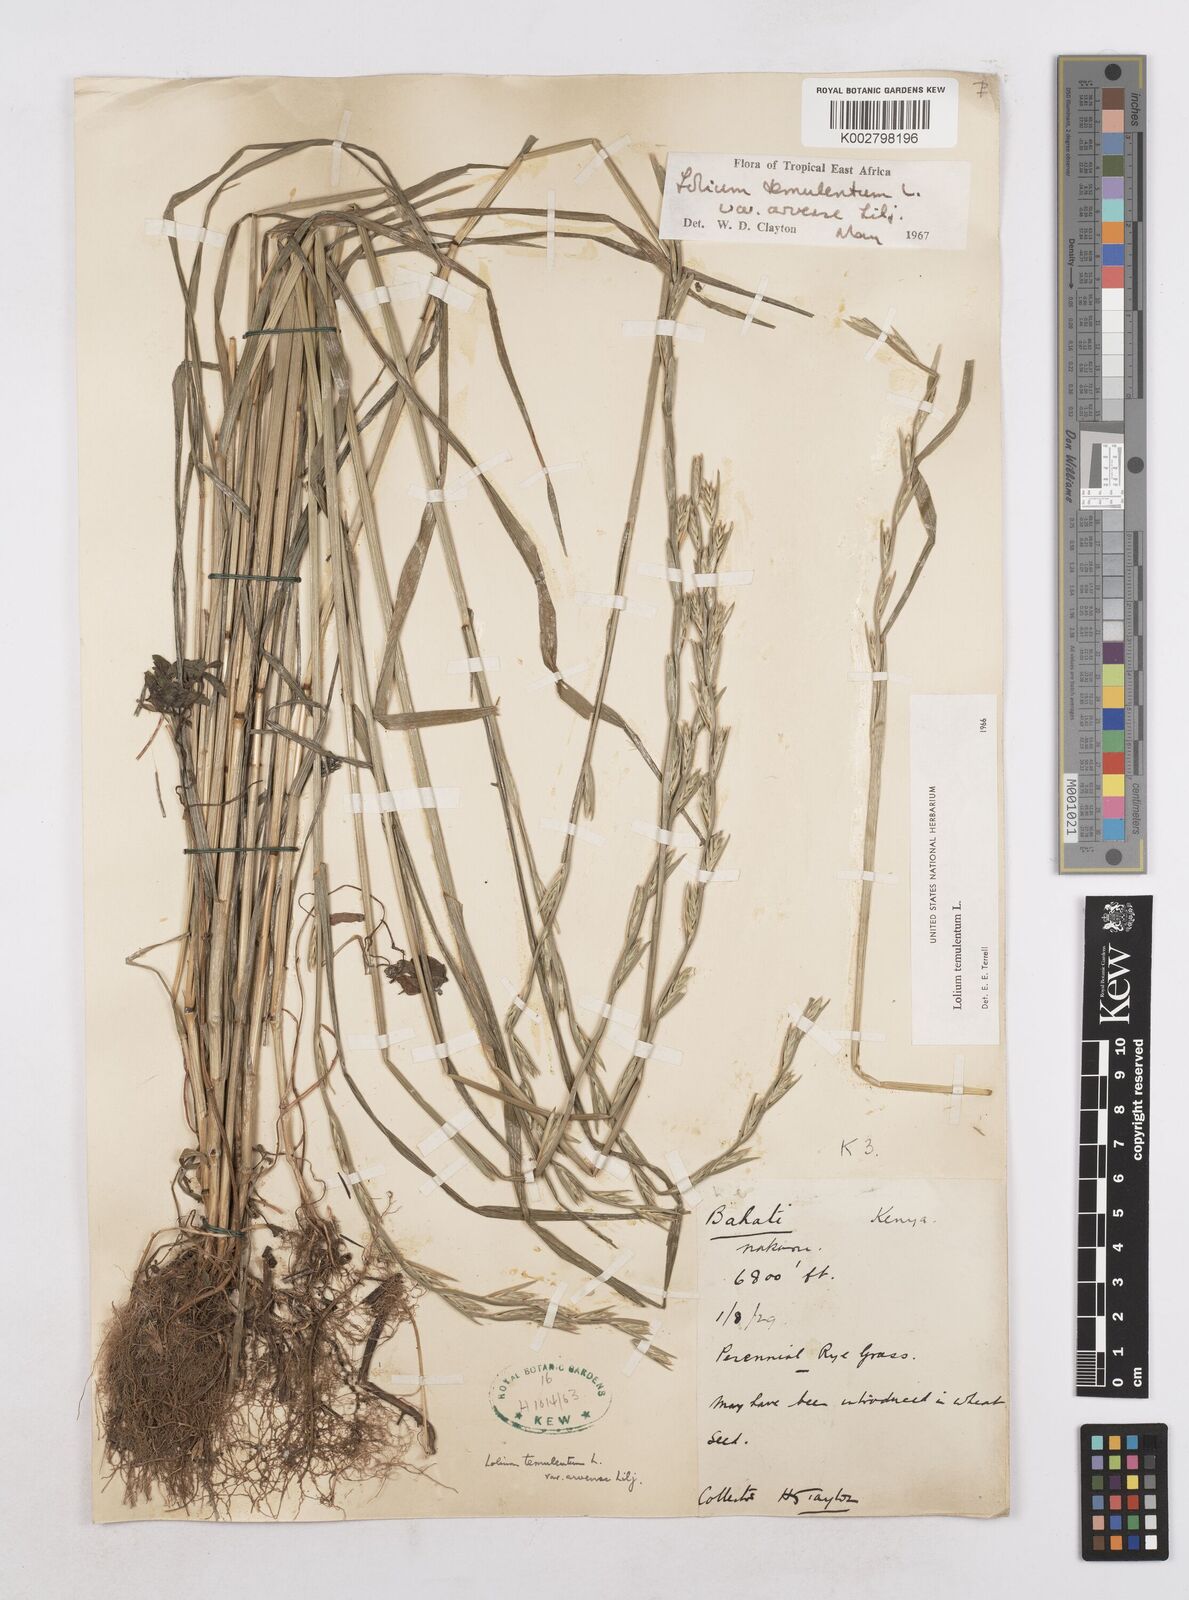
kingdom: Plantae
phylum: Tracheophyta
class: Liliopsida
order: Poales
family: Poaceae
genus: Lolium
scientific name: Lolium temulentum
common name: Darnel
